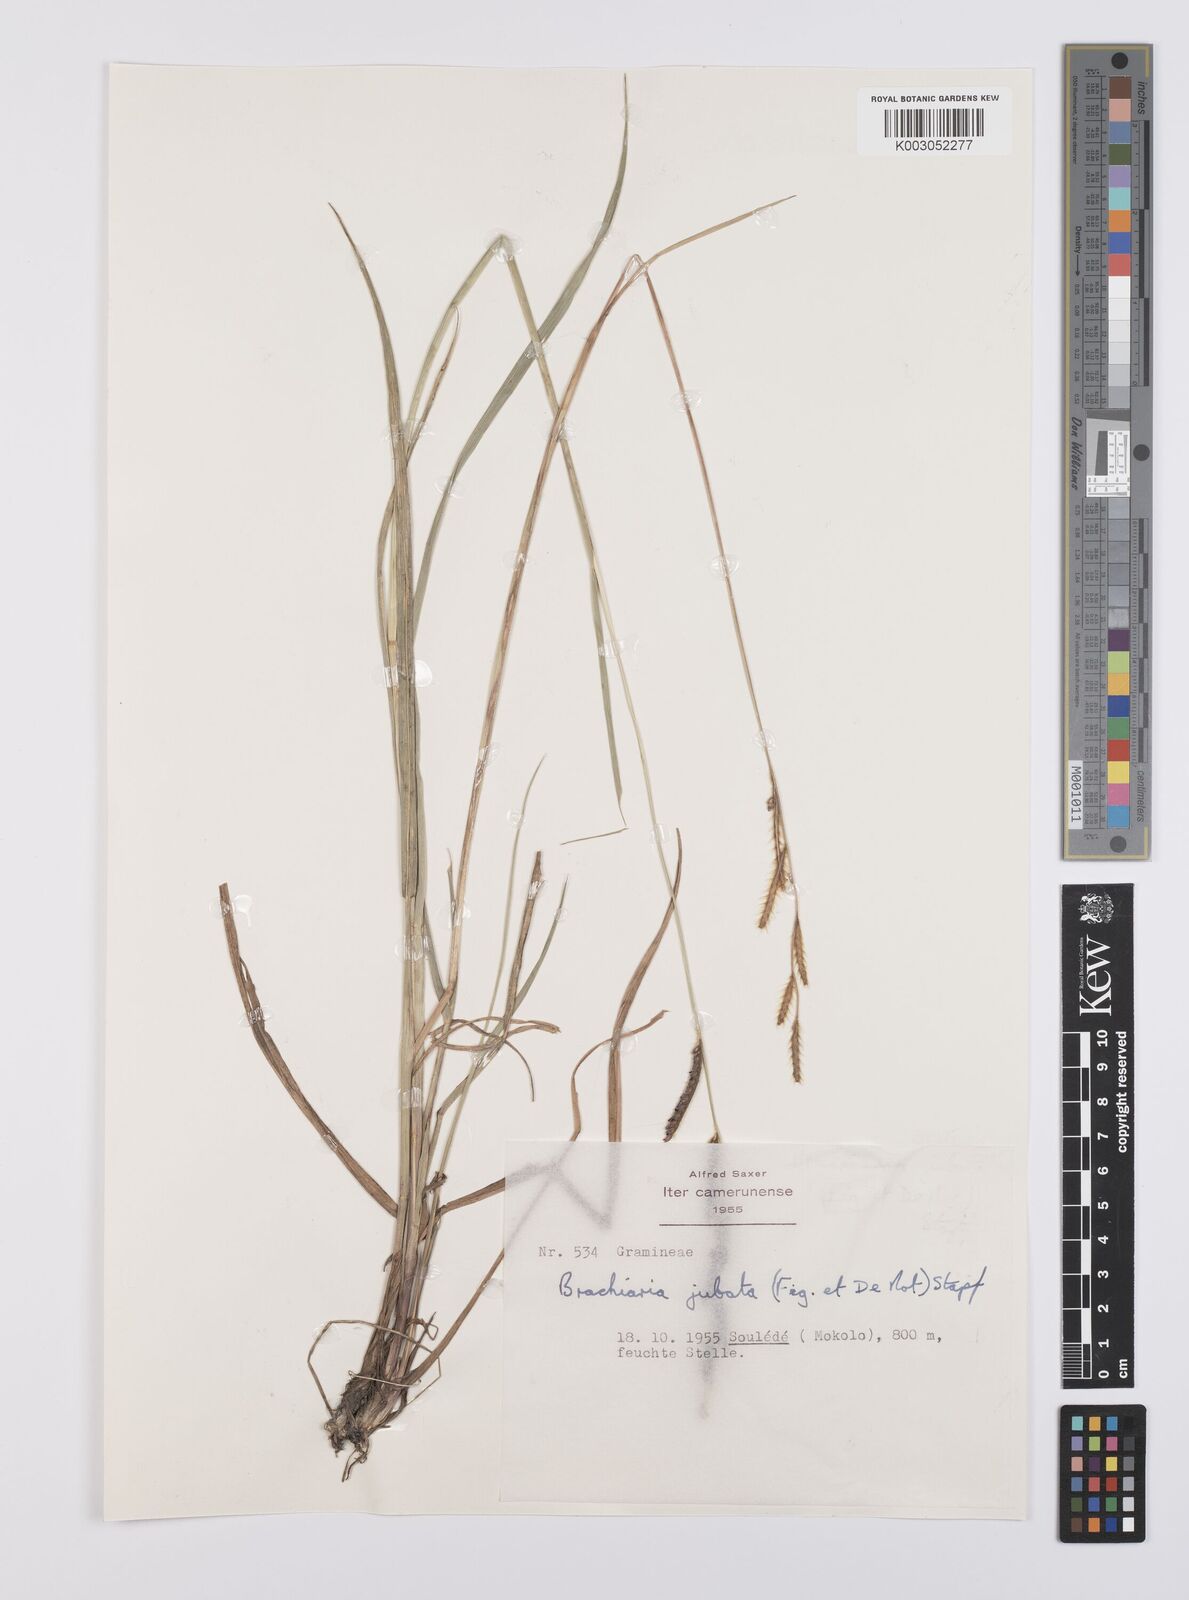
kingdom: Plantae
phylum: Tracheophyta
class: Liliopsida
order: Poales
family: Poaceae
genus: Urochloa
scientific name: Urochloa jubata
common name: Buffalograss
